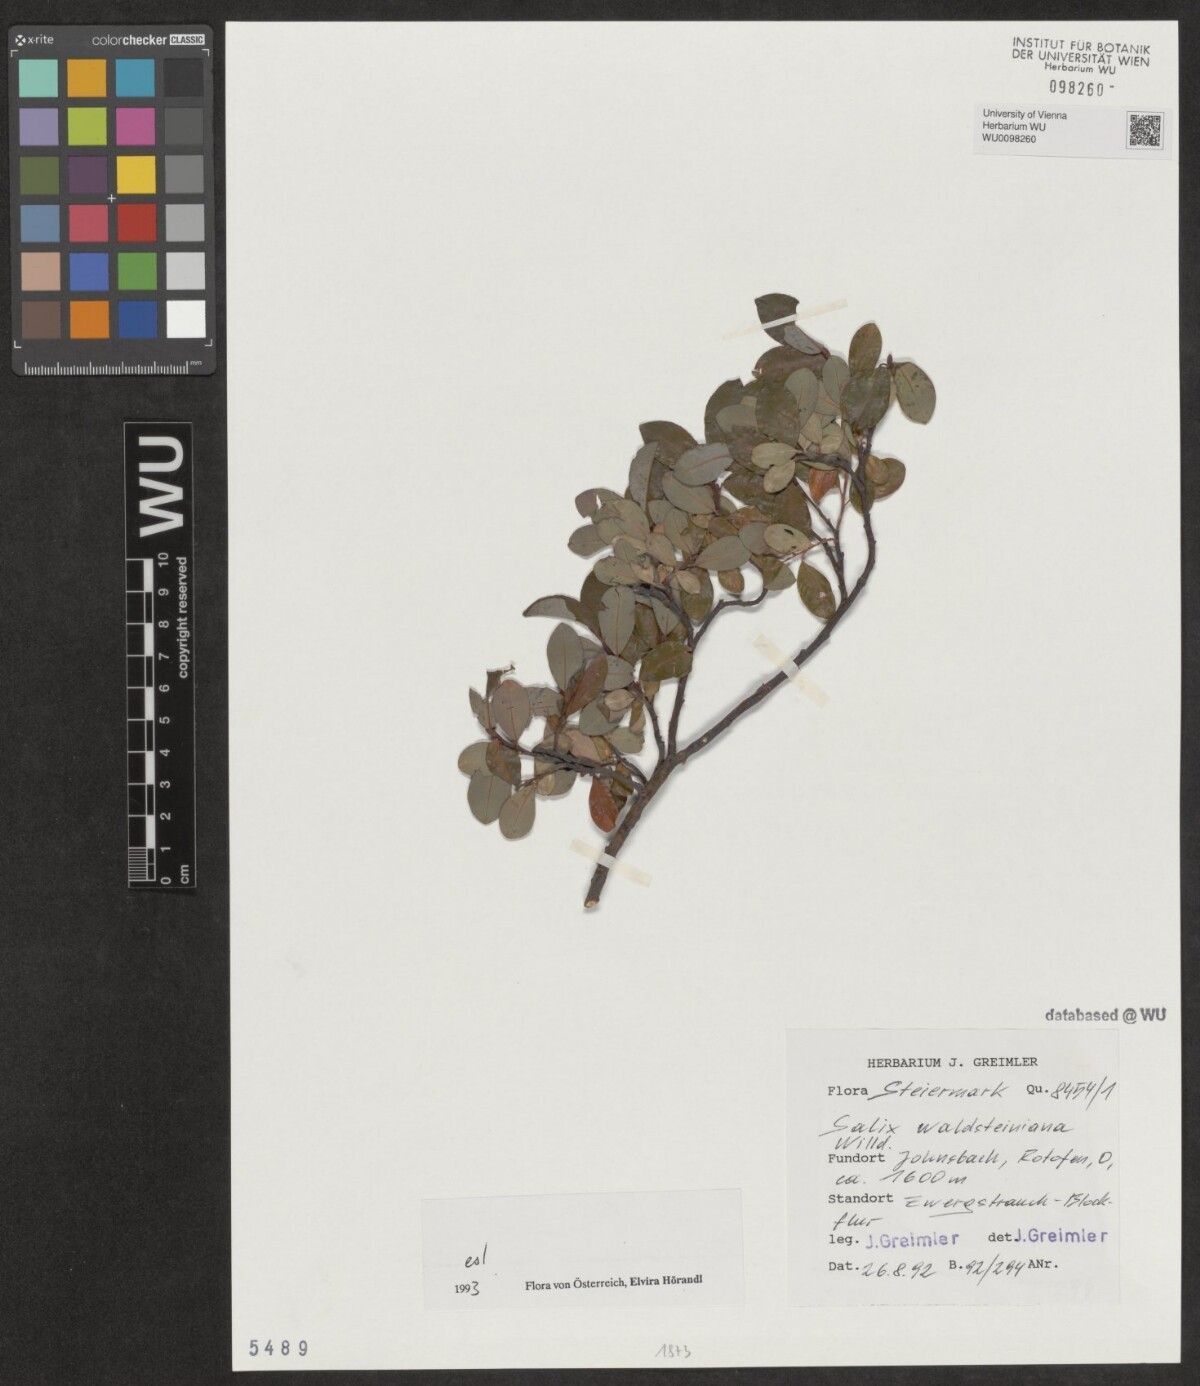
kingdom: Plantae
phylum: Tracheophyta
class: Magnoliopsida
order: Malpighiales
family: Salicaceae
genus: Salix
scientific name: Salix waldsteiniana
